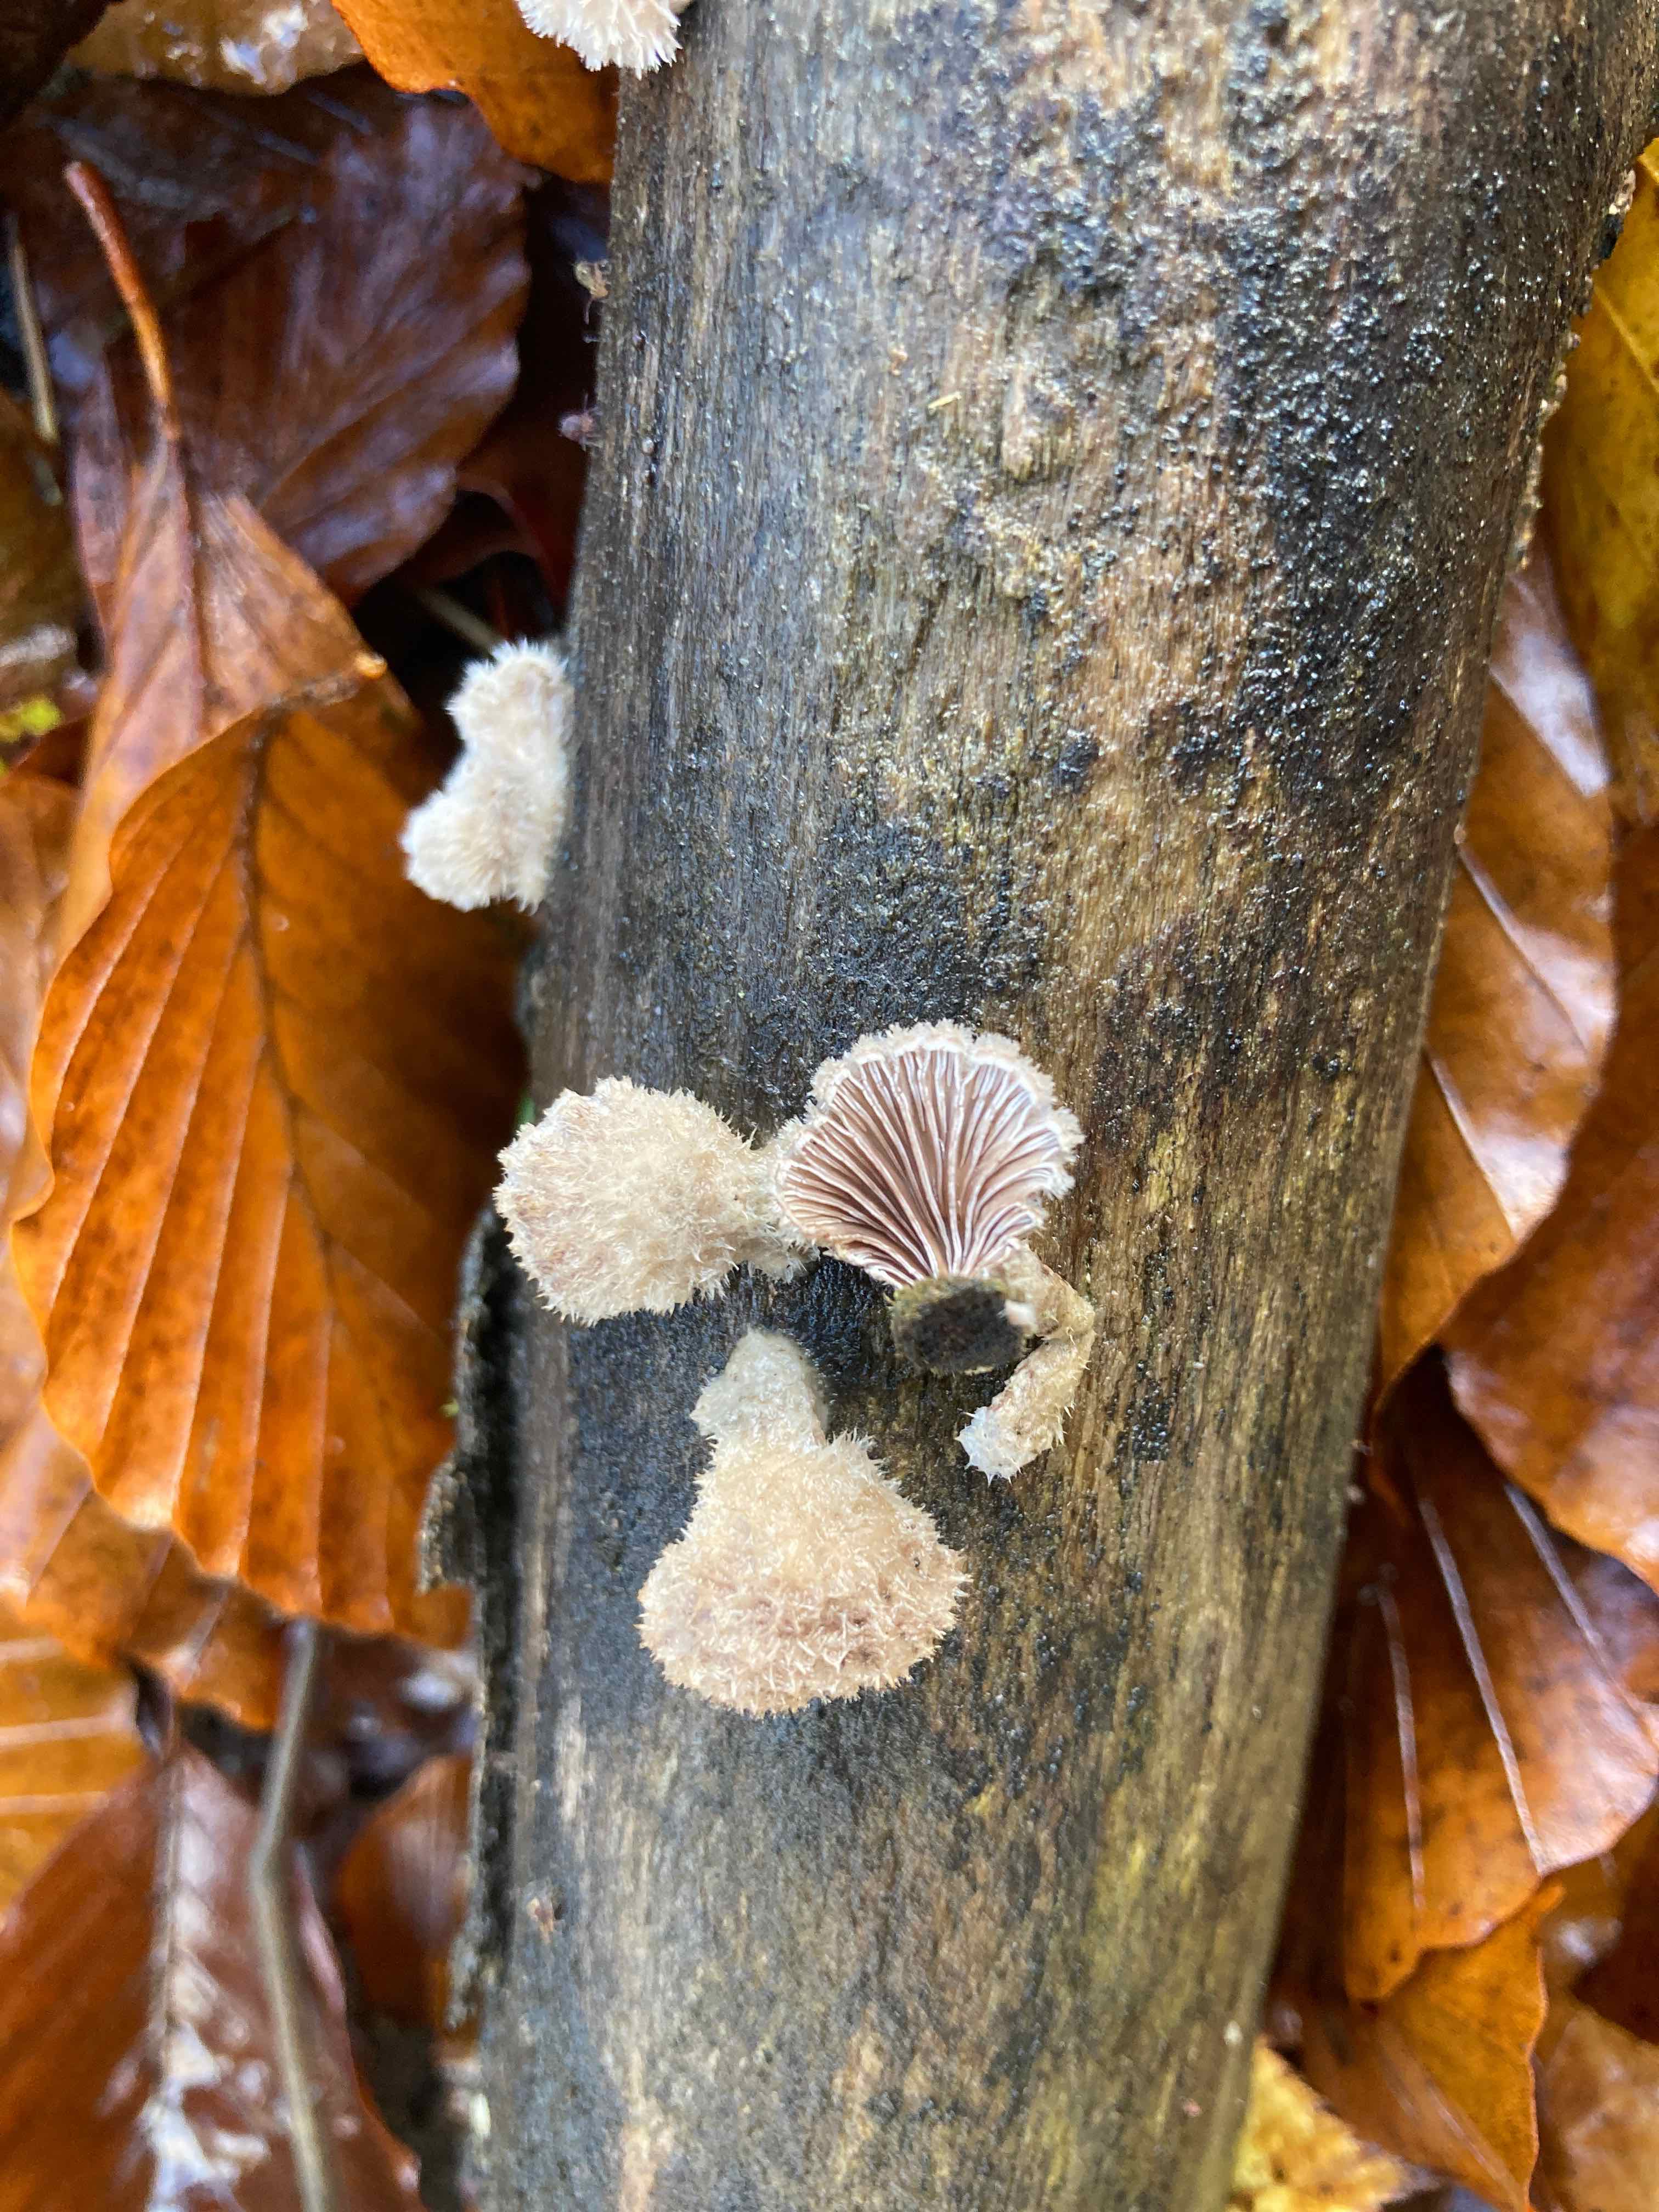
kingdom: Fungi
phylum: Basidiomycota
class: Agaricomycetes
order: Agaricales
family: Schizophyllaceae
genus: Schizophyllum
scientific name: Schizophyllum commune
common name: kløvblad
